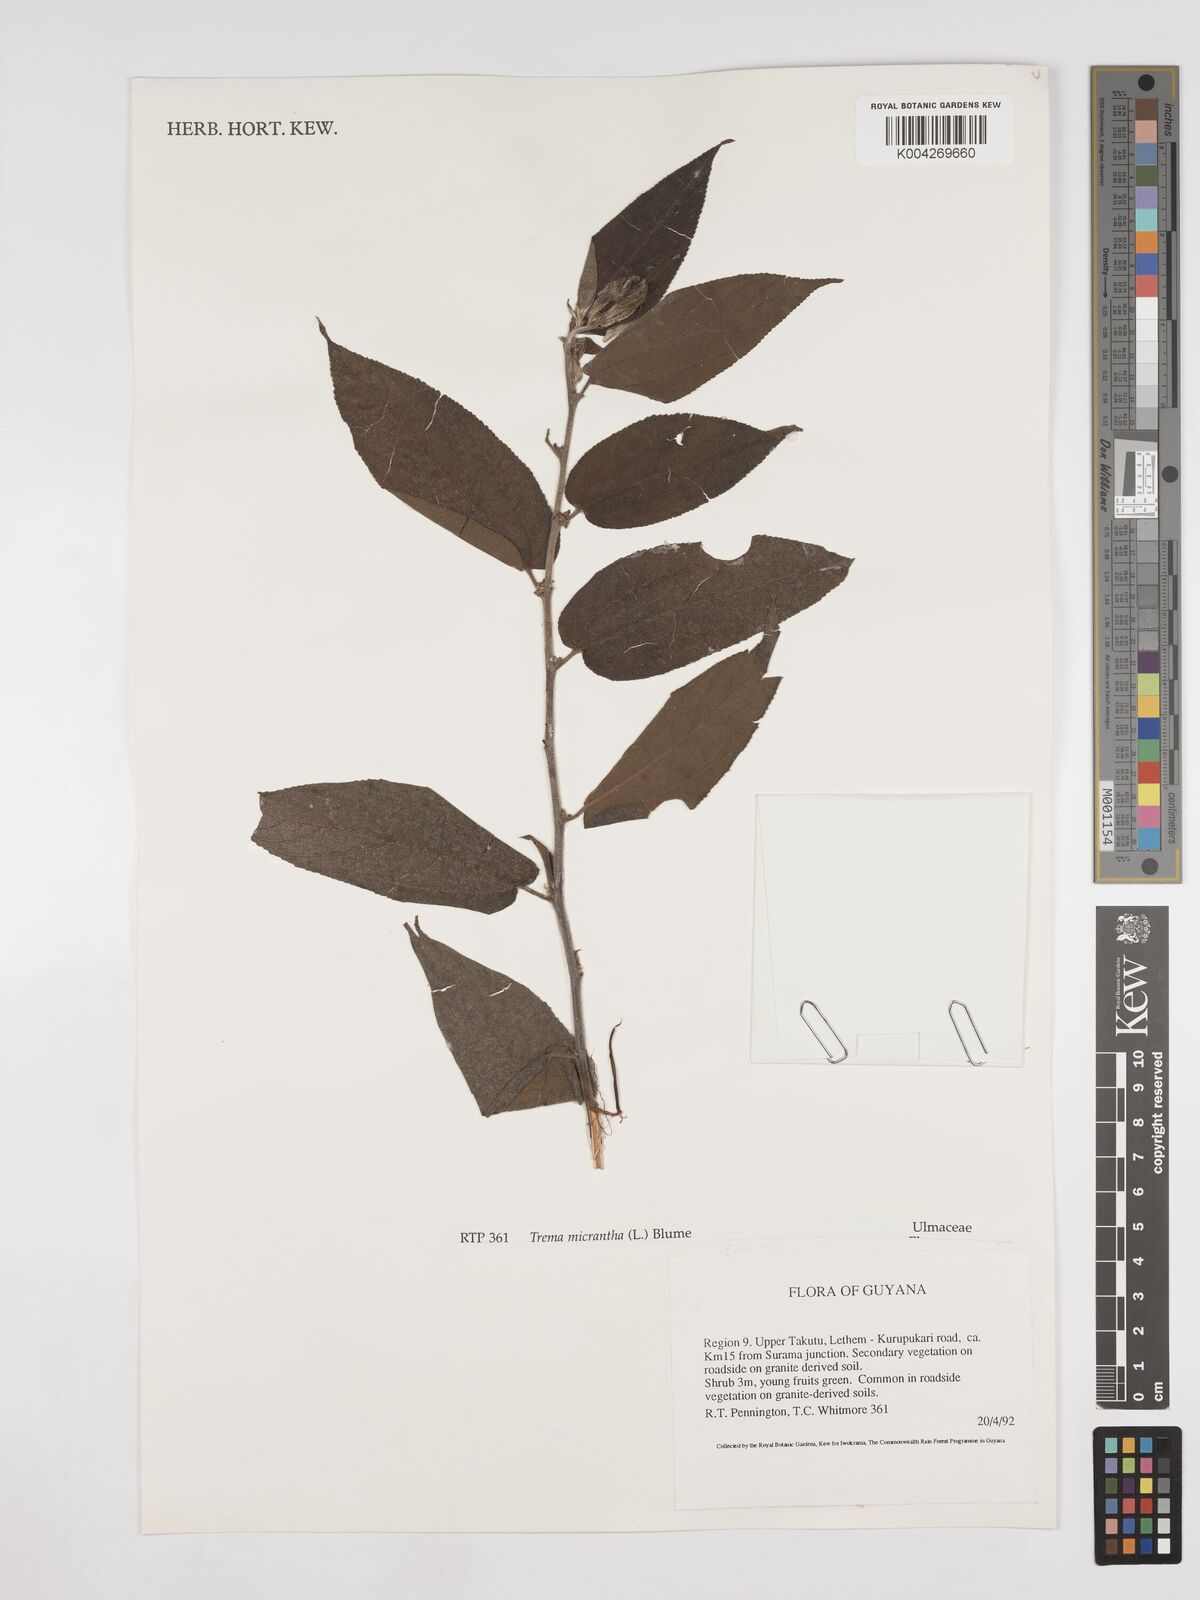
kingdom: Plantae
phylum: Tracheophyta
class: Magnoliopsida
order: Rosales
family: Cannabaceae
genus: Trema
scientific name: Trema micranthum
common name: Jamaican nettletree
